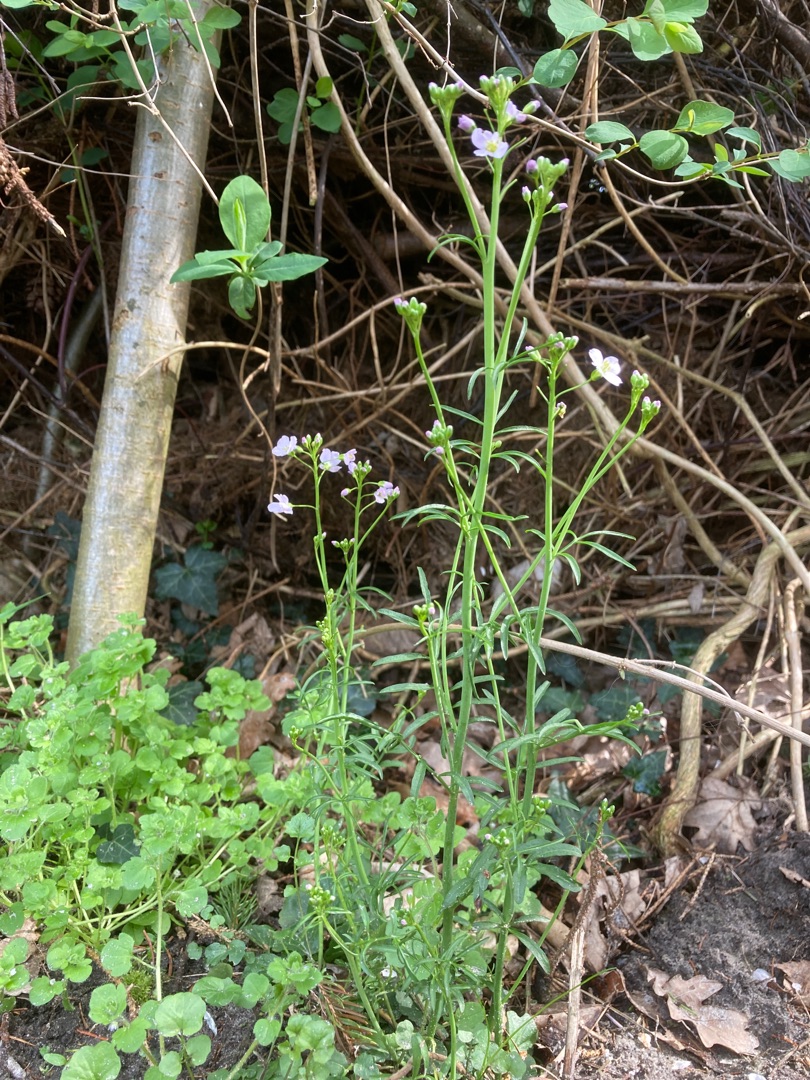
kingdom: Plantae
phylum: Tracheophyta
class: Magnoliopsida
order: Brassicales
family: Brassicaceae
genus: Cardamine
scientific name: Cardamine pratensis
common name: Engkarse
